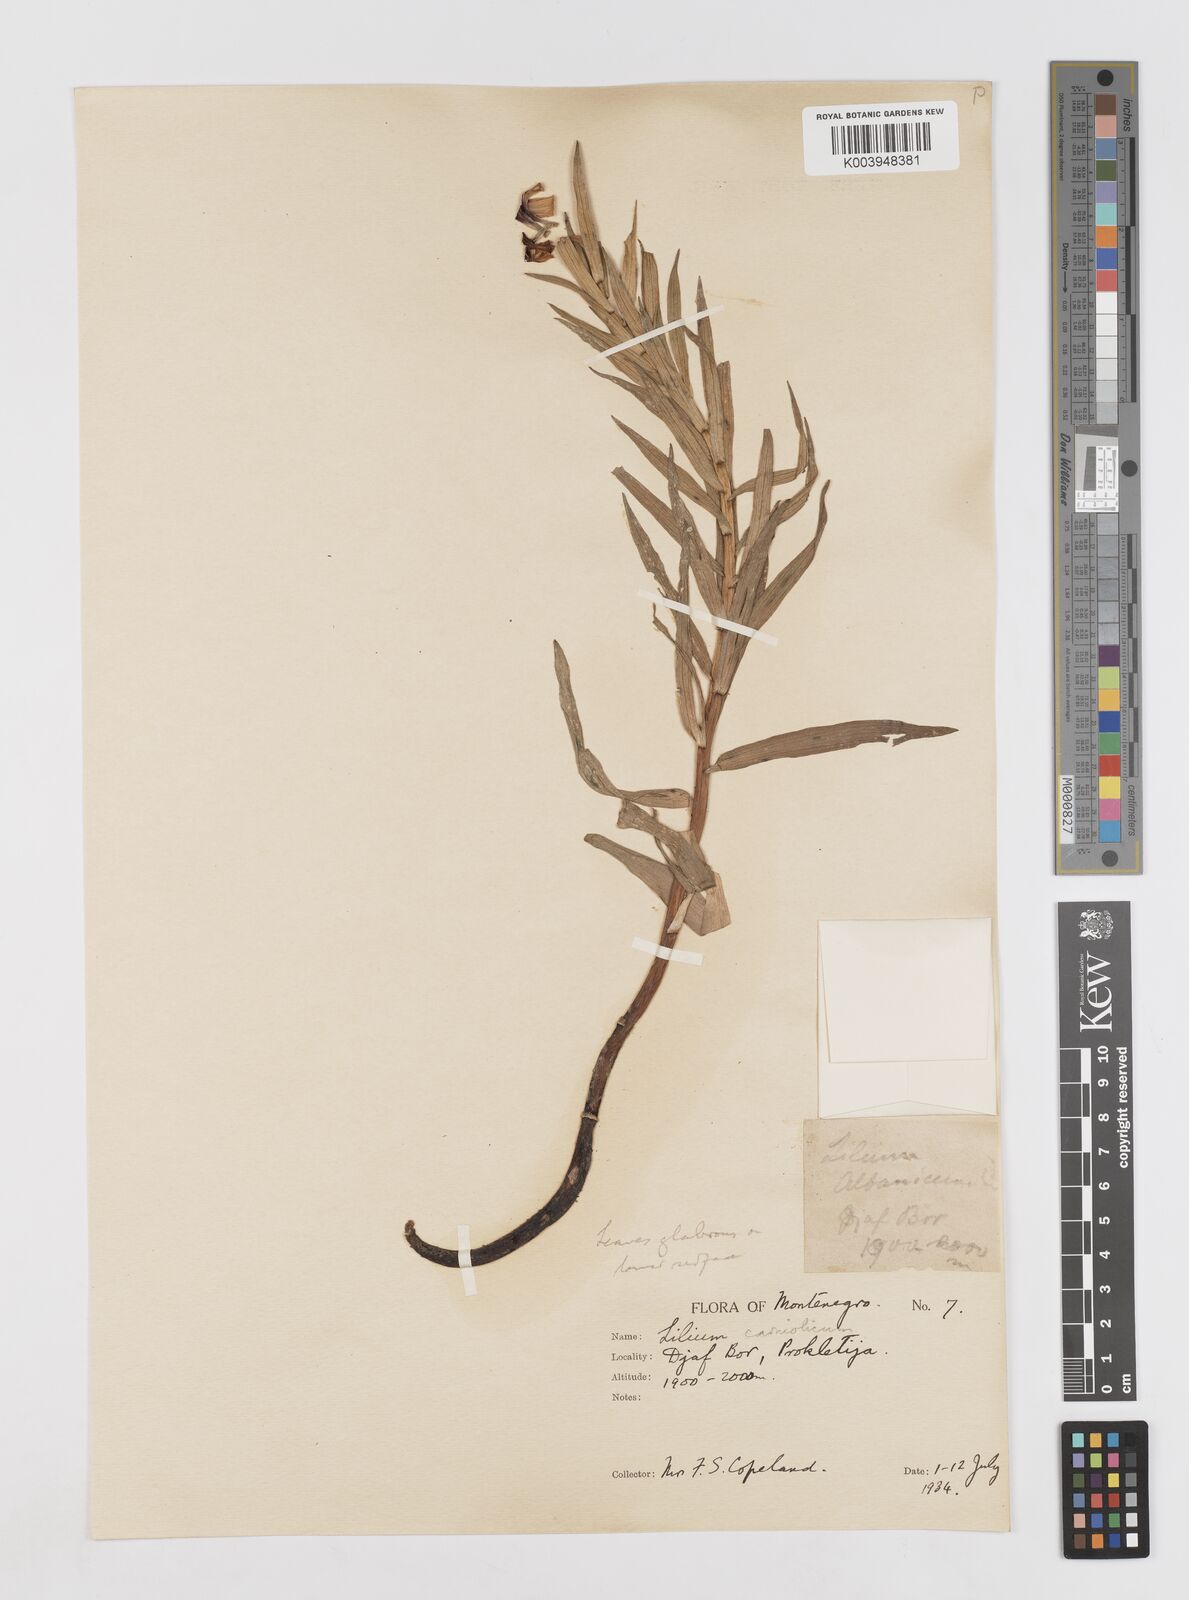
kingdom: Plantae
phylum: Tracheophyta
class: Liliopsida
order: Liliales
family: Liliaceae
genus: Lilium
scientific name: Lilium
